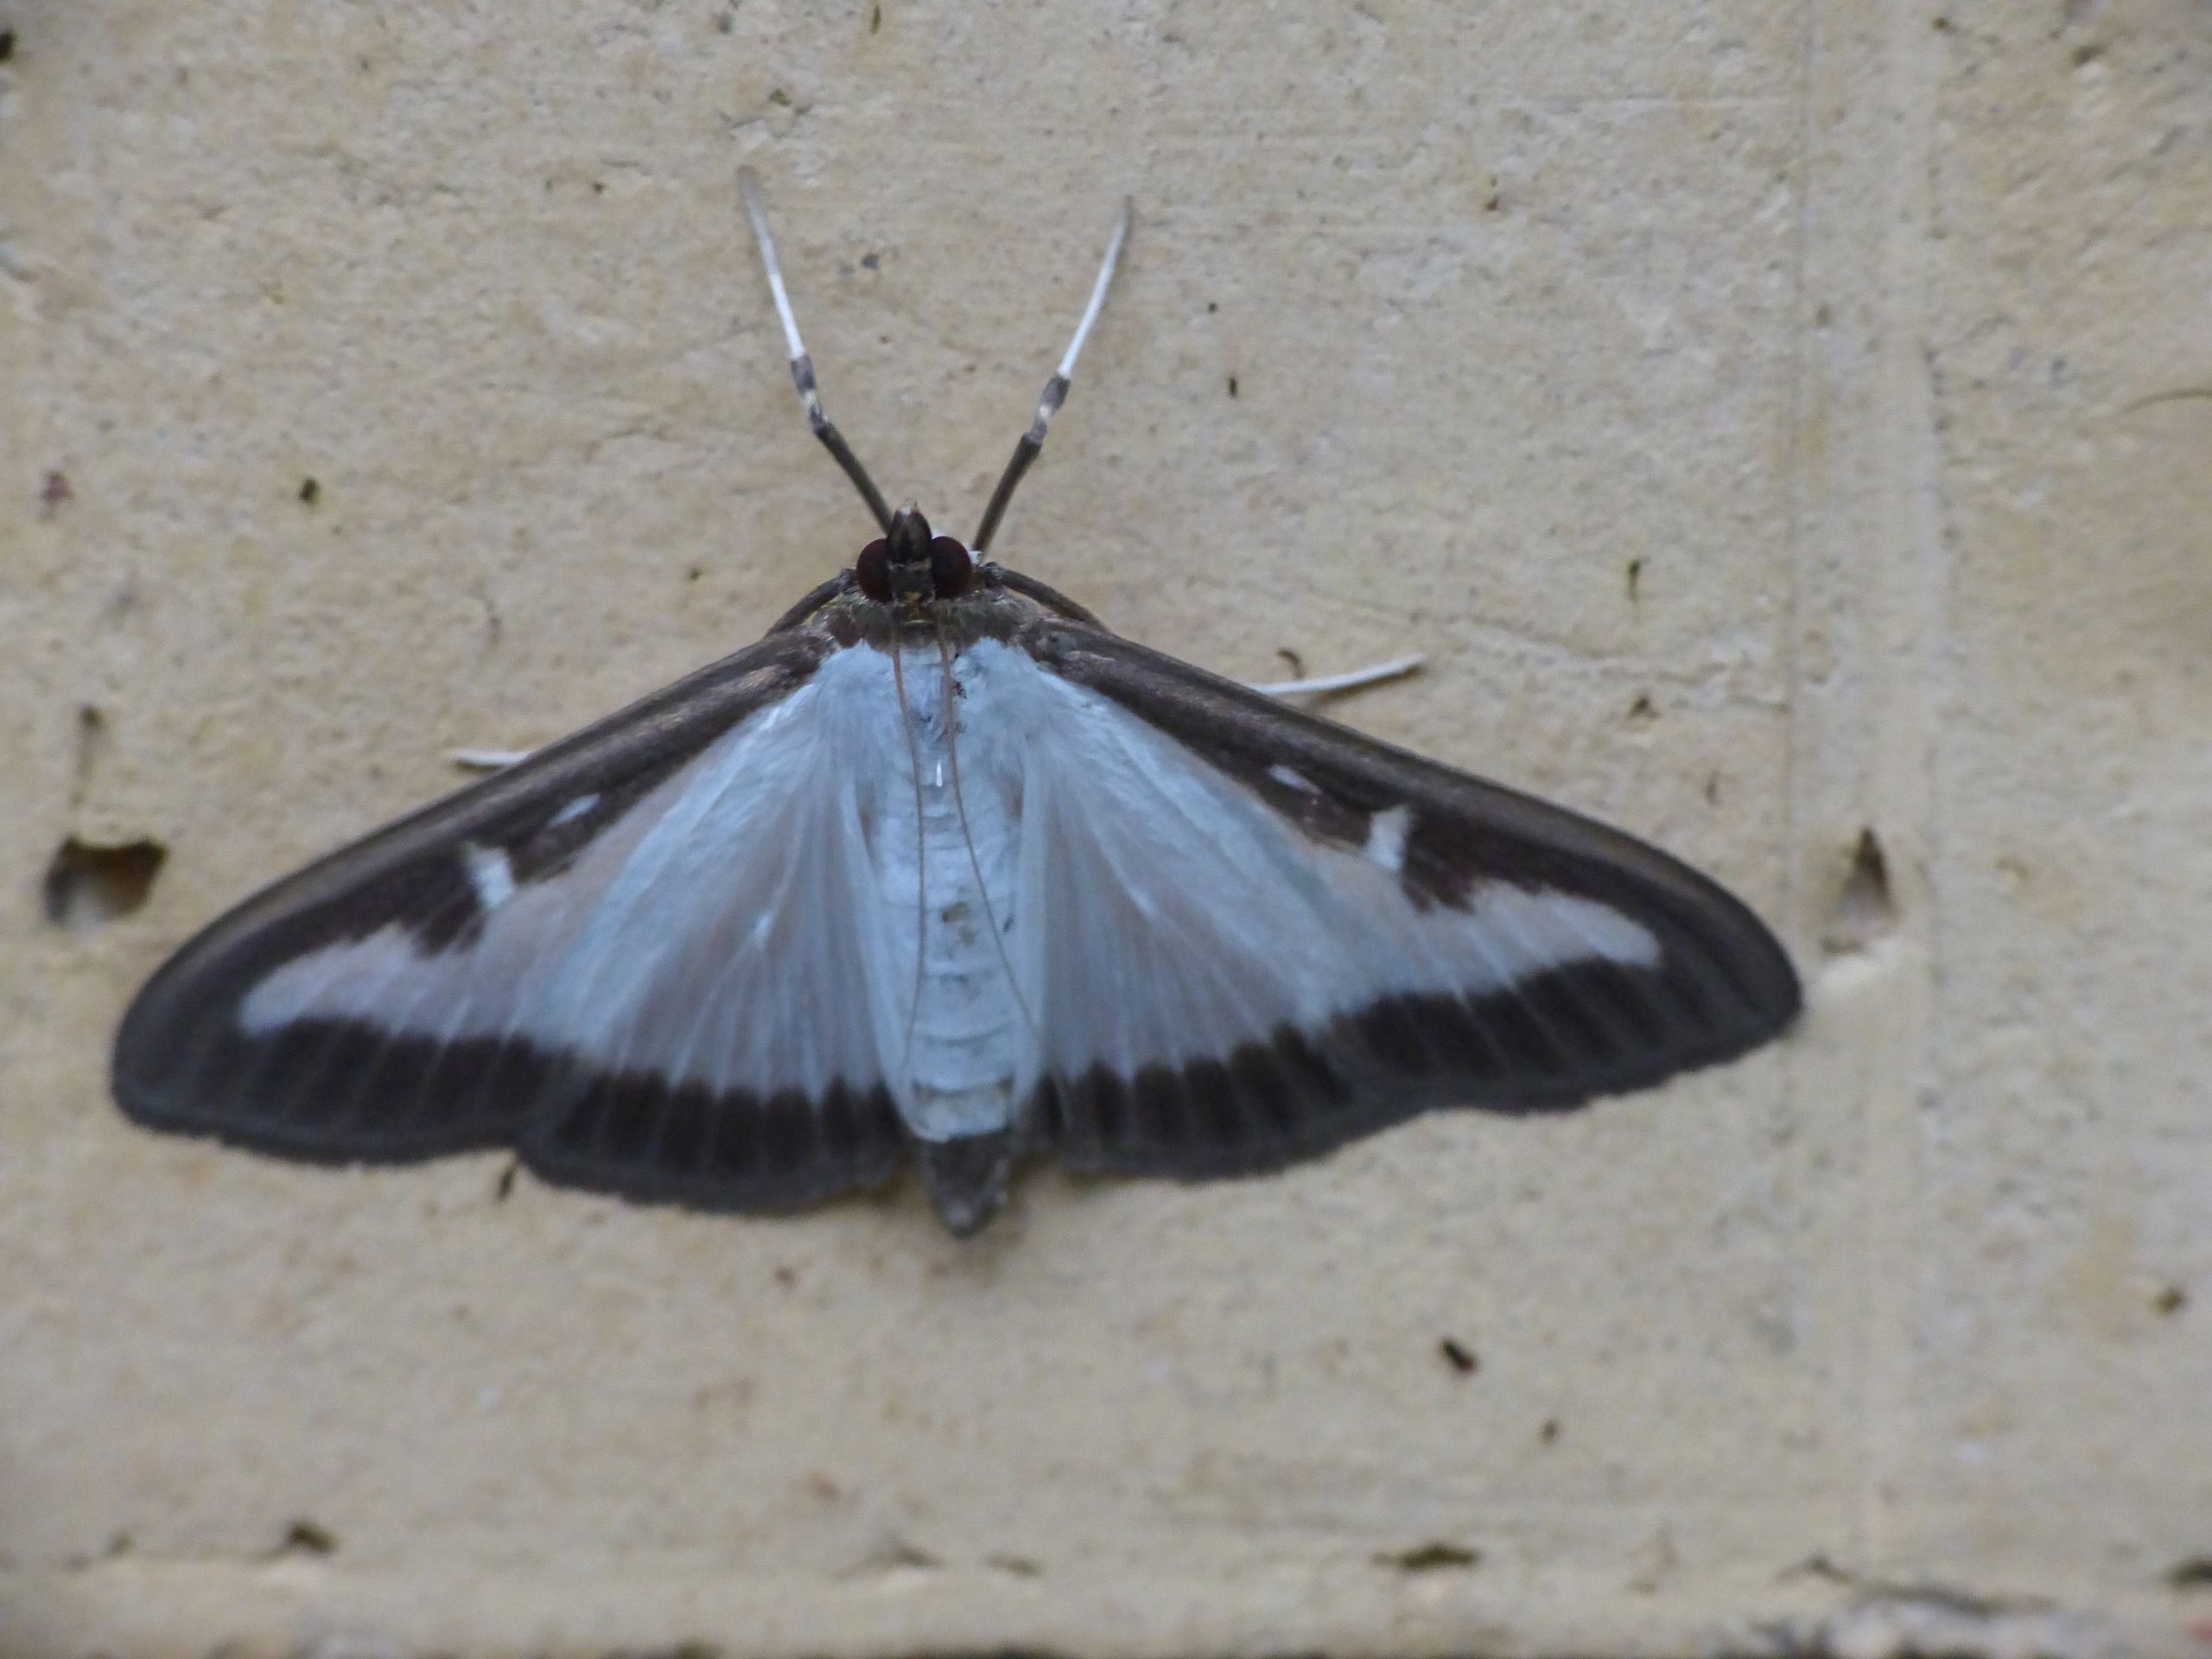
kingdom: Animalia
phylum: Arthropoda
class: Insecta
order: Lepidoptera
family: Crambidae
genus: Cydalima
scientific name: Cydalima perspectalis
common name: Buksbomhalvmøl
